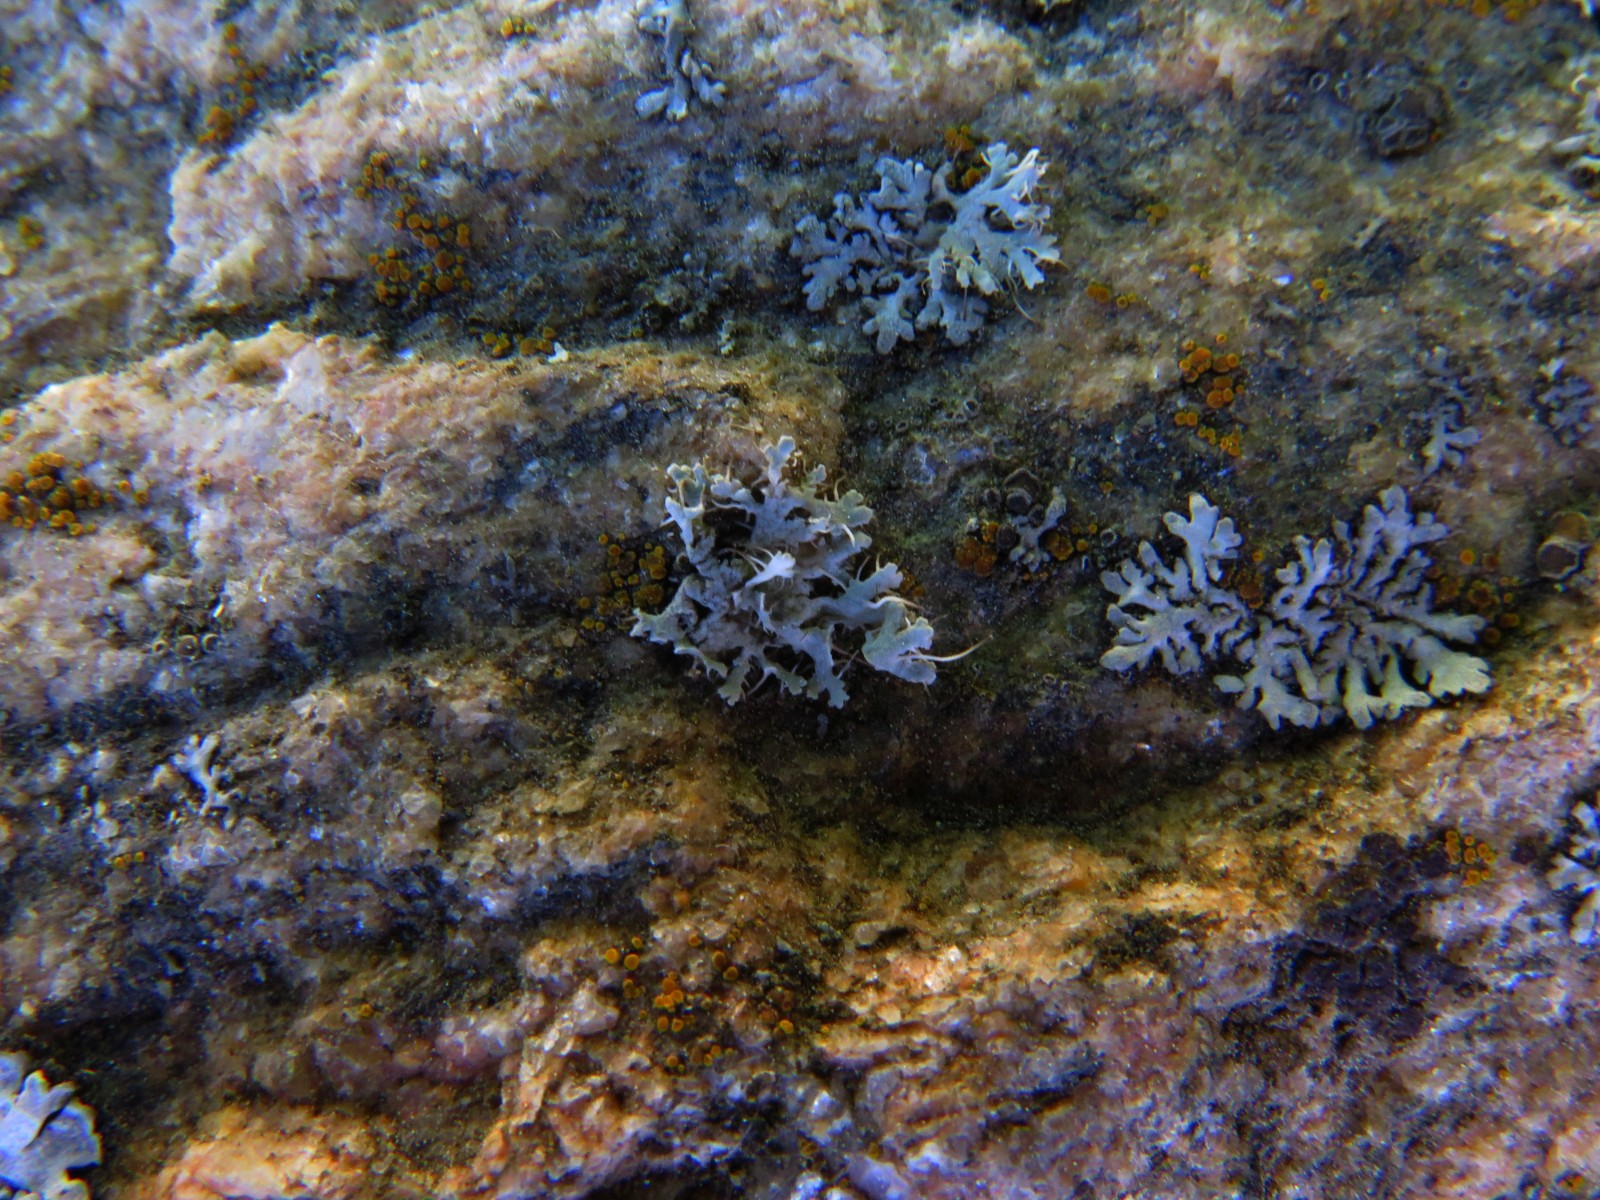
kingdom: Fungi
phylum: Ascomycota
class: Lecanoromycetes
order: Caliciales
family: Physciaceae
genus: Physcia
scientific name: Physcia tenella
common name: spæd rosetlav
